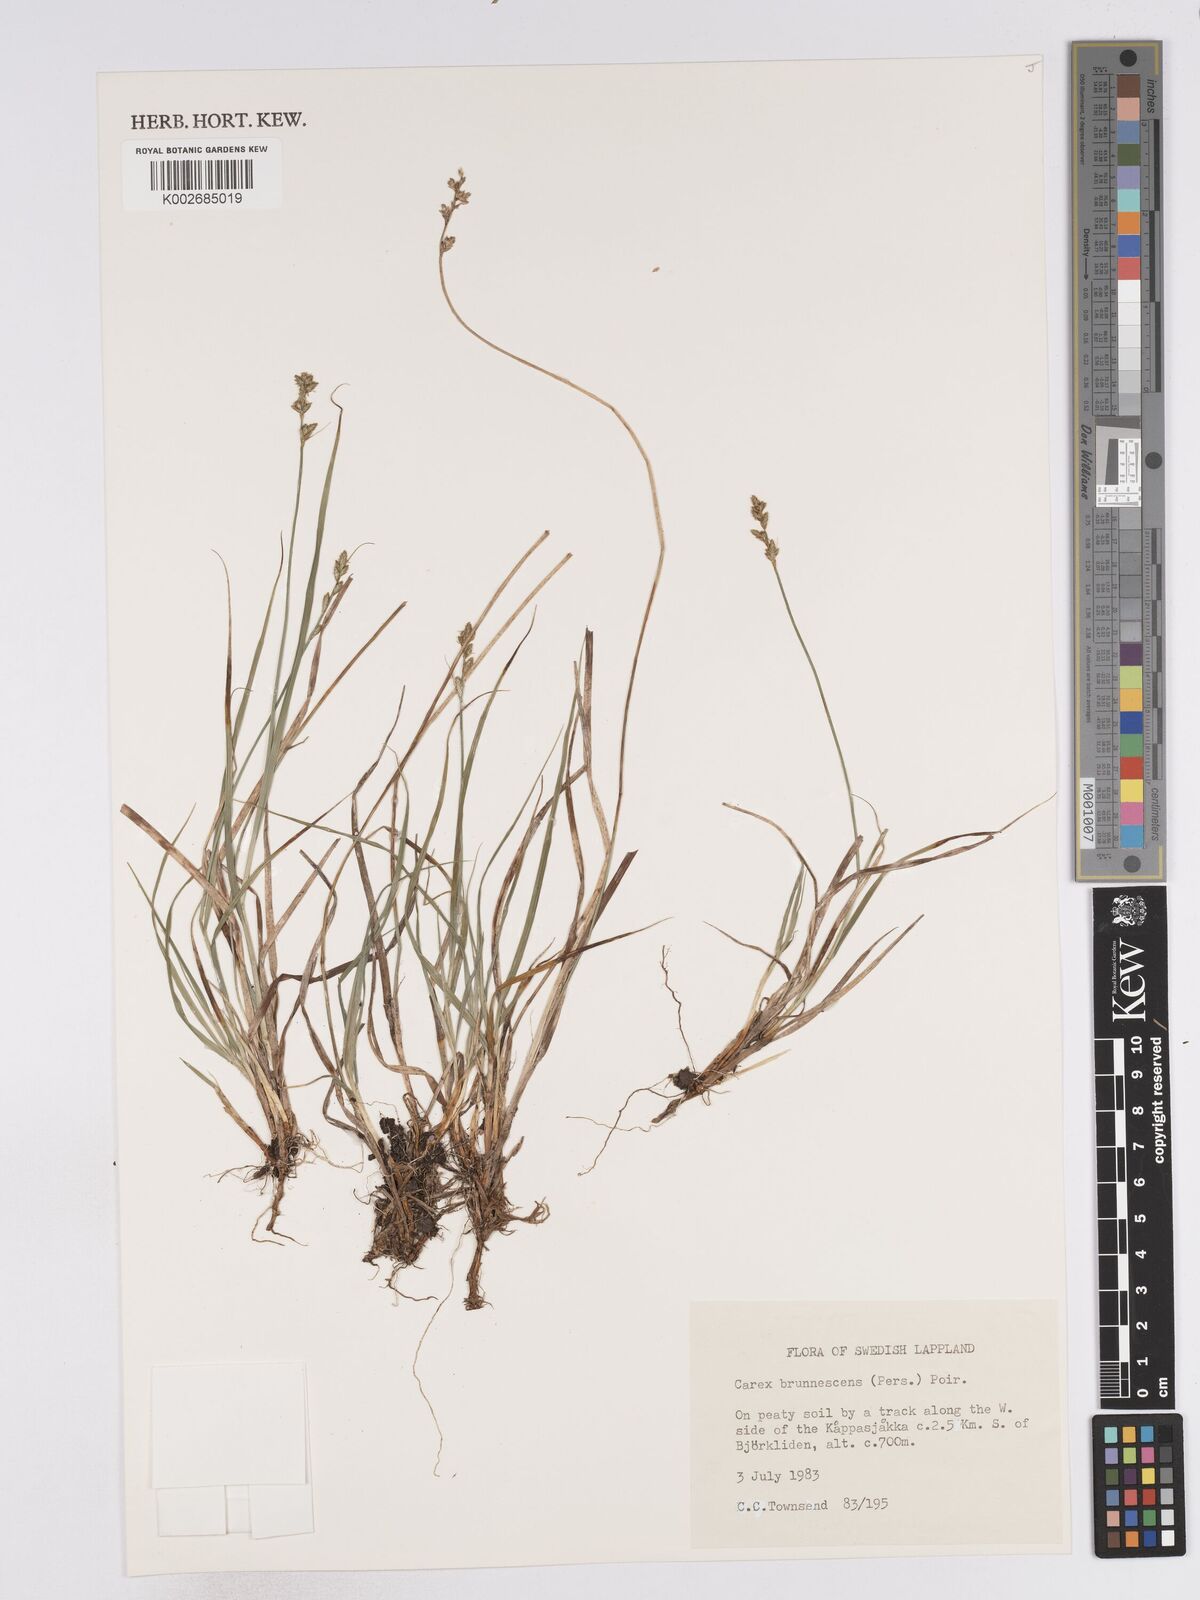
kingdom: Plantae
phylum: Tracheophyta
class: Liliopsida
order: Poales
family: Cyperaceae
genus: Carex
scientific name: Carex brunnescens
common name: Brown sedge
